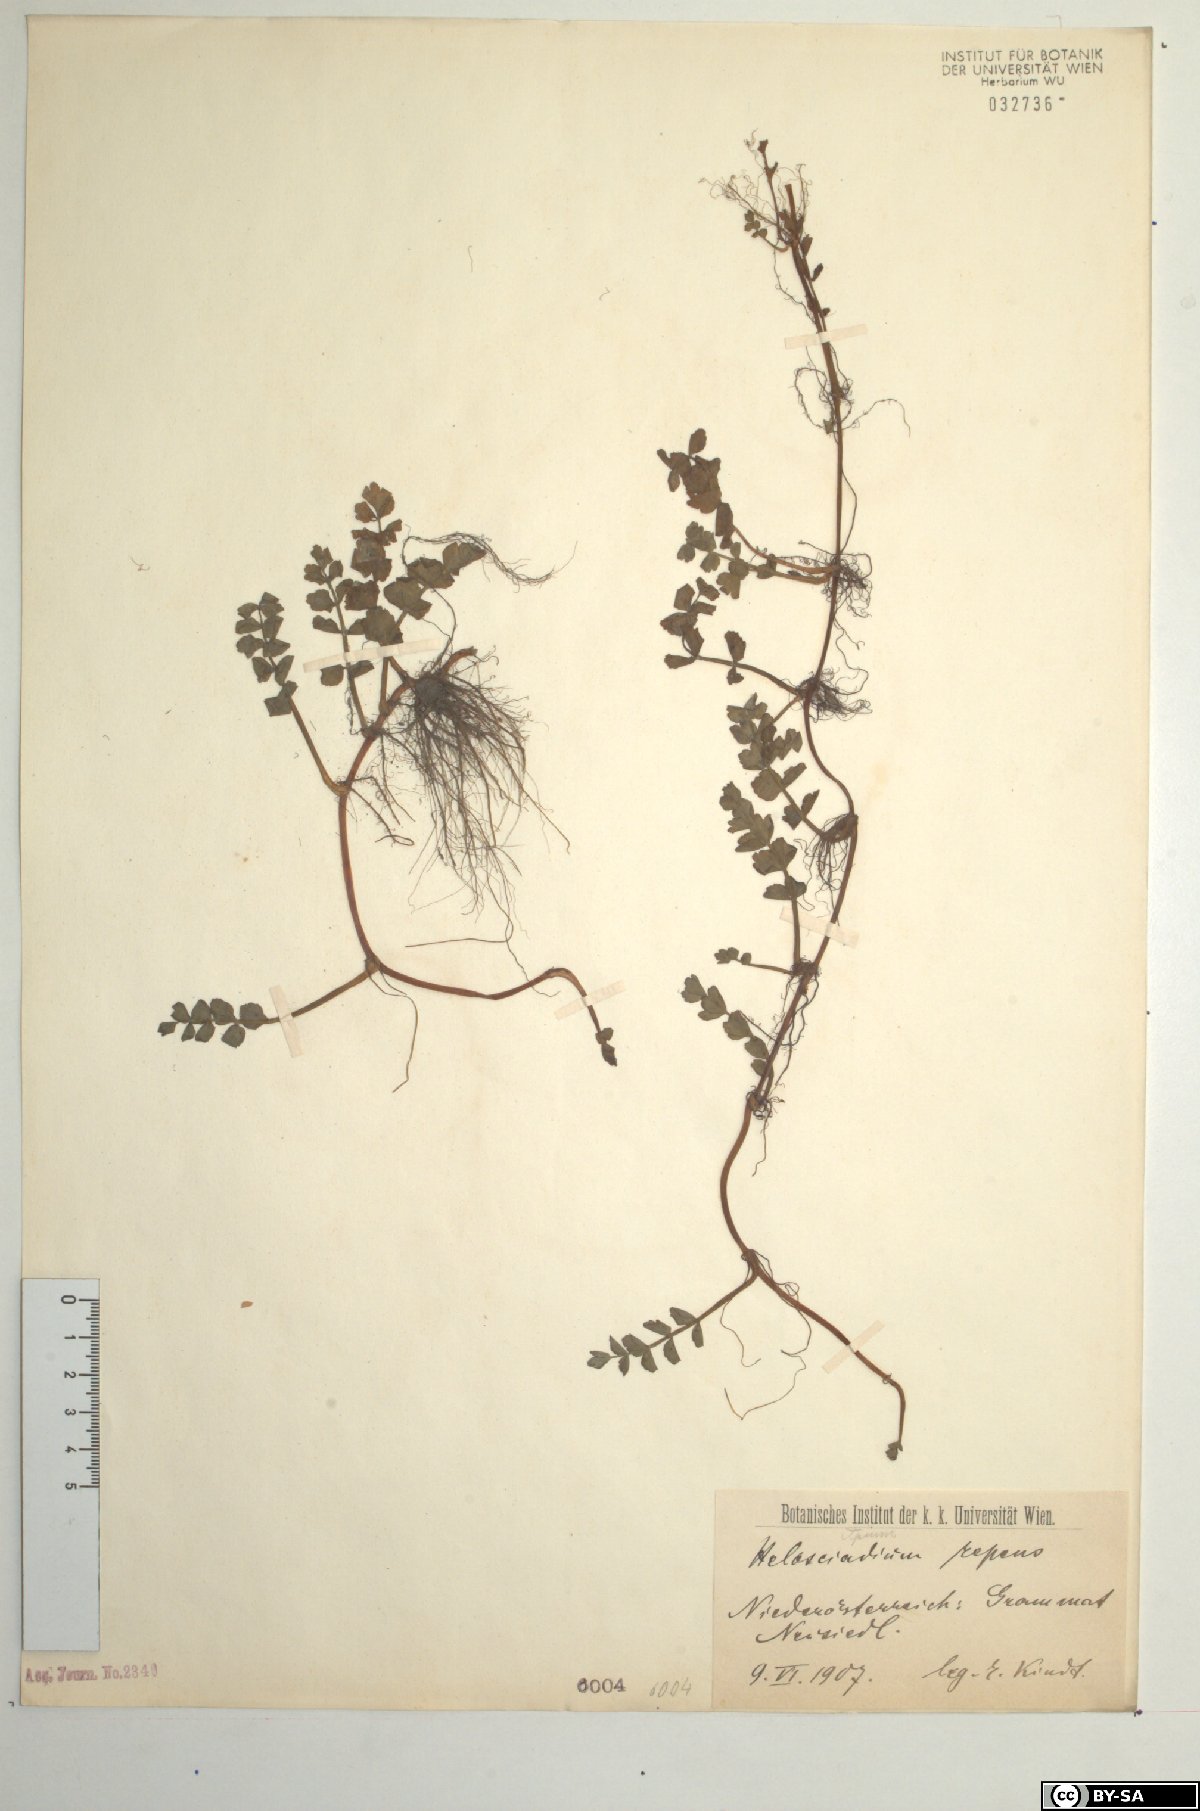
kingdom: Plantae
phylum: Tracheophyta
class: Magnoliopsida
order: Apiales
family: Apiaceae
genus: Helosciadium
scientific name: Helosciadium repens
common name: Creeping marshwort
